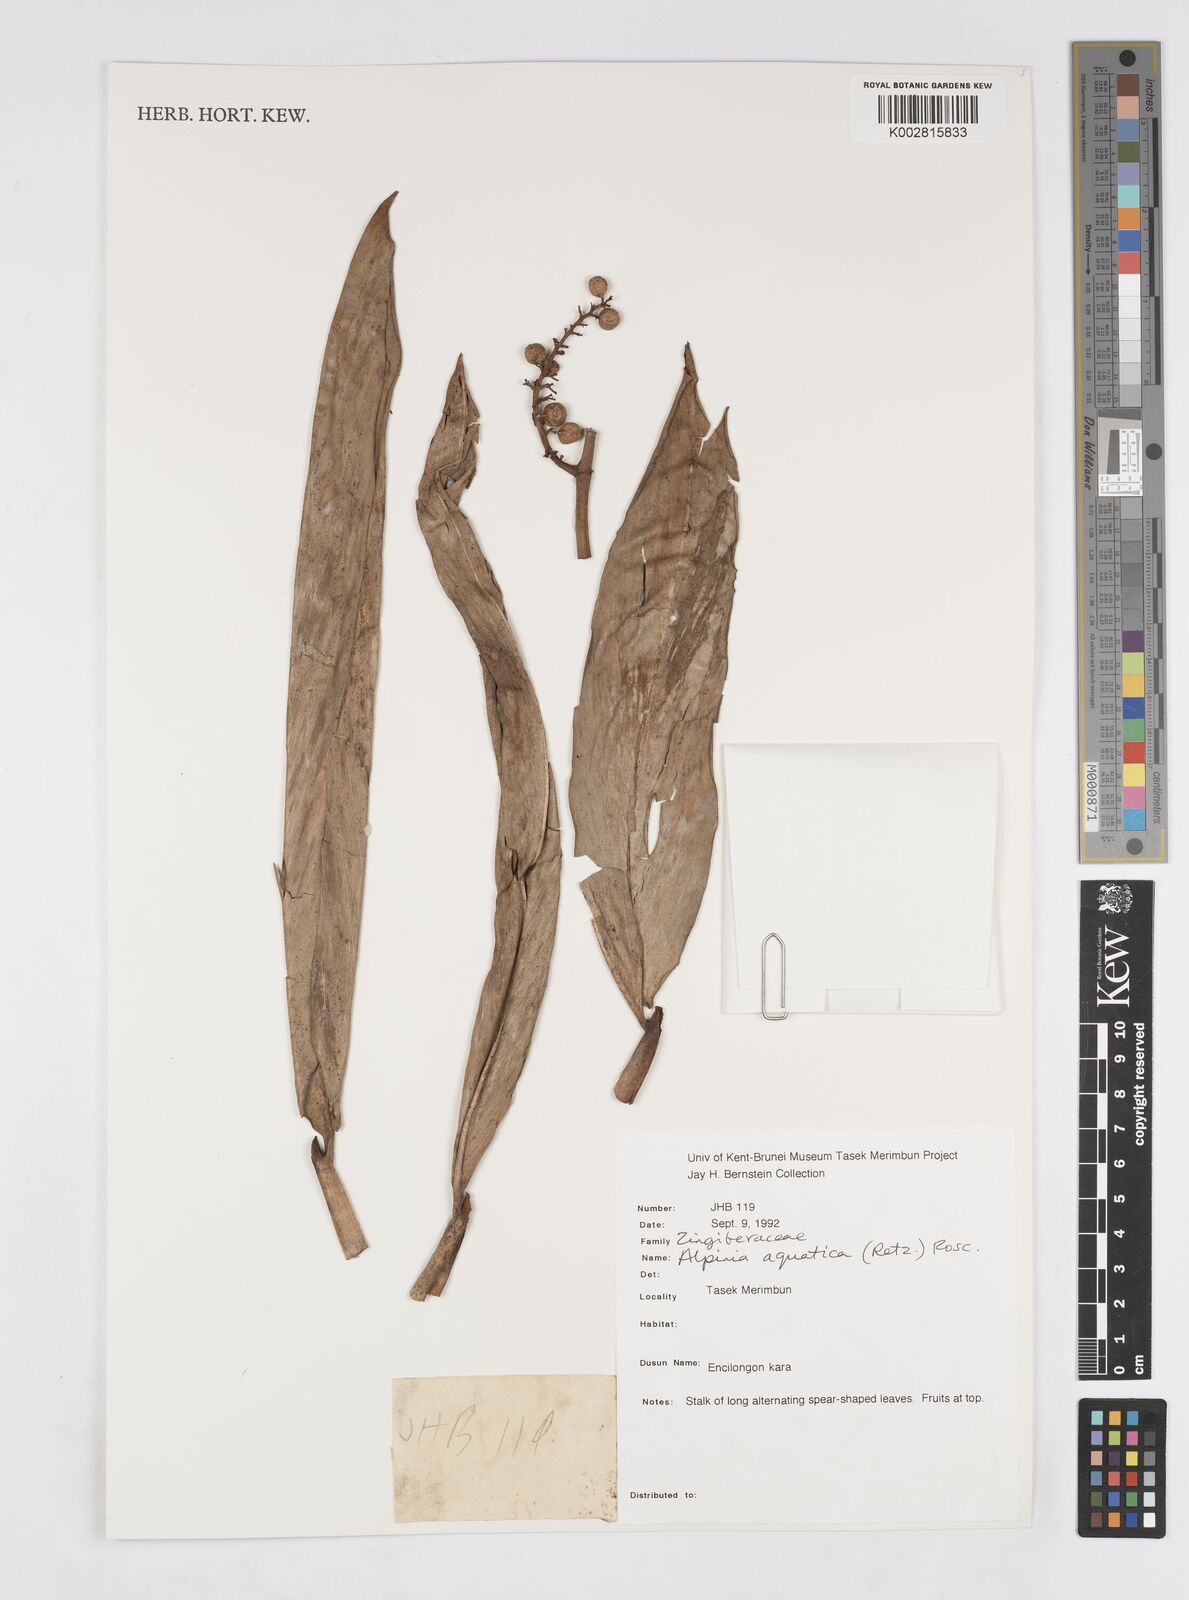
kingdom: Plantae
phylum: Tracheophyta
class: Liliopsida
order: Zingiberales
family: Zingiberaceae
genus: Alpinia
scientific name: Alpinia aquatica
